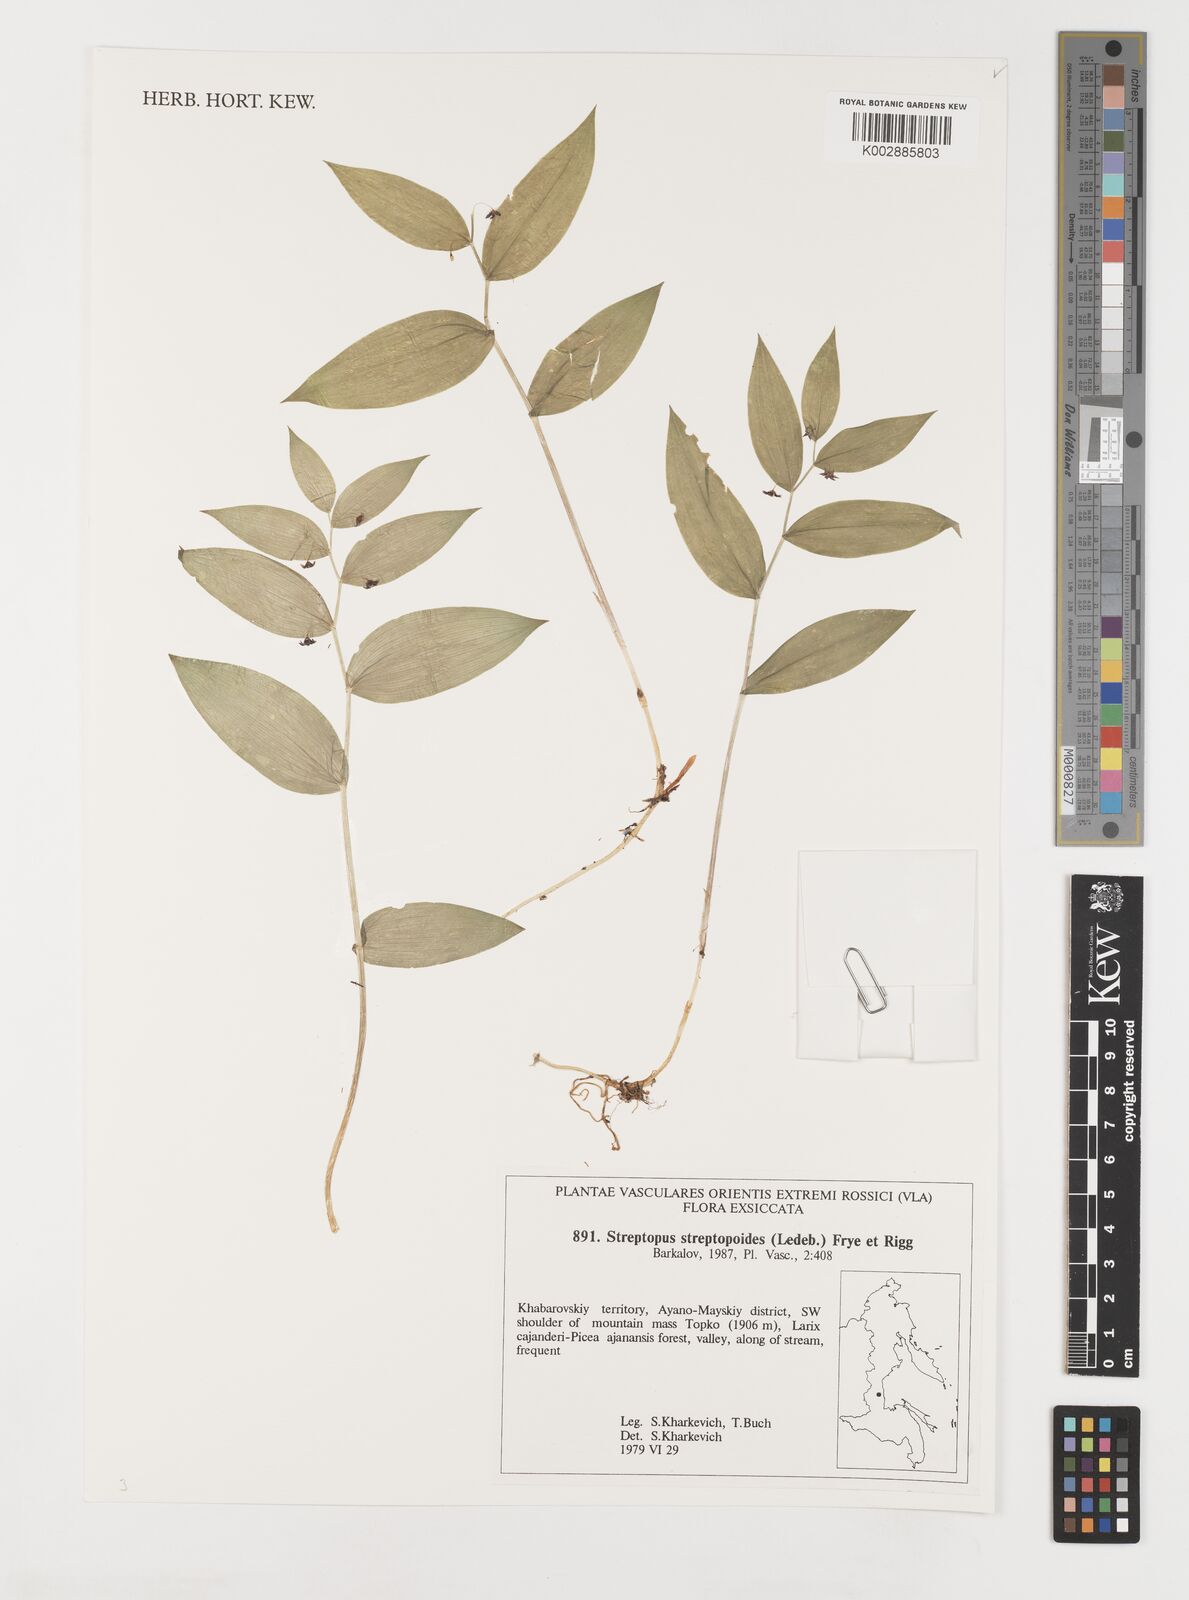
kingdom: Plantae
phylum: Tracheophyta
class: Liliopsida
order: Liliales
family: Liliaceae
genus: Streptopus
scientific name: Streptopus streptopoides
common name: Small twisted-stalk
